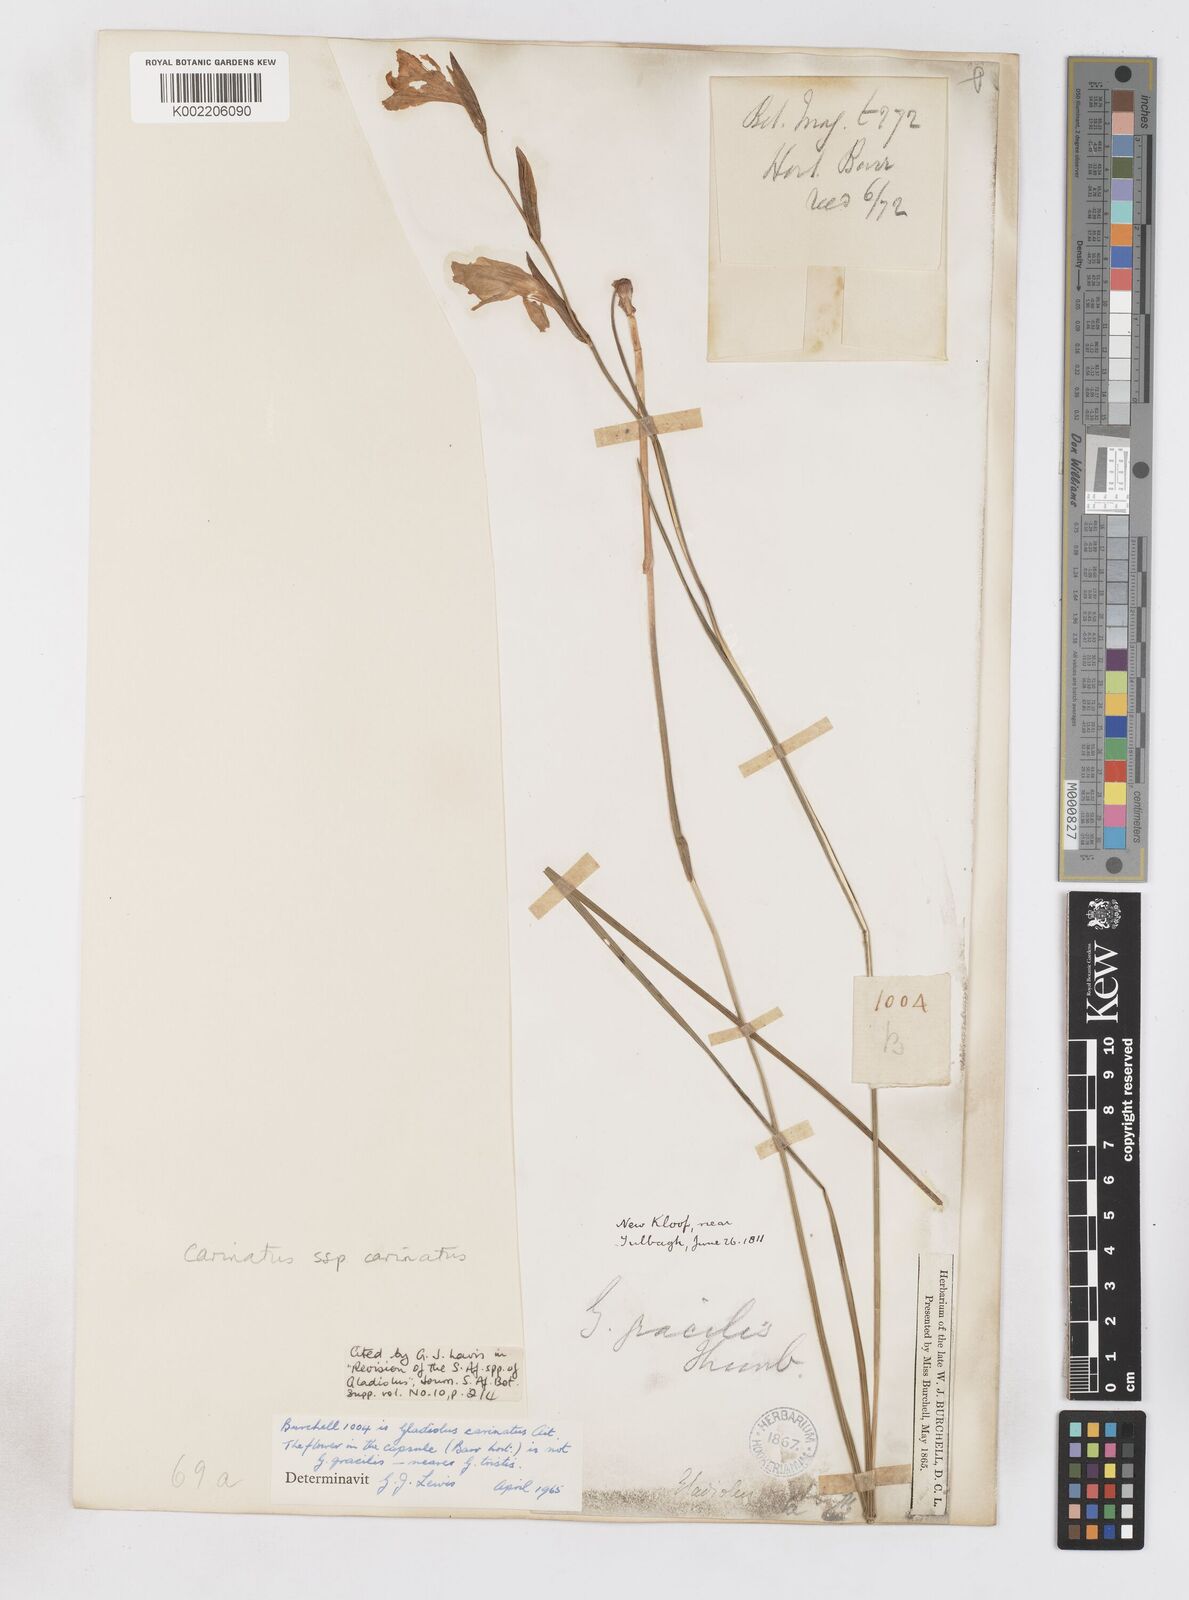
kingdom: Plantae
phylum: Tracheophyta
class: Liliopsida
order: Asparagales
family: Iridaceae
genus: Gladiolus
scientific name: Gladiolus carinatus
